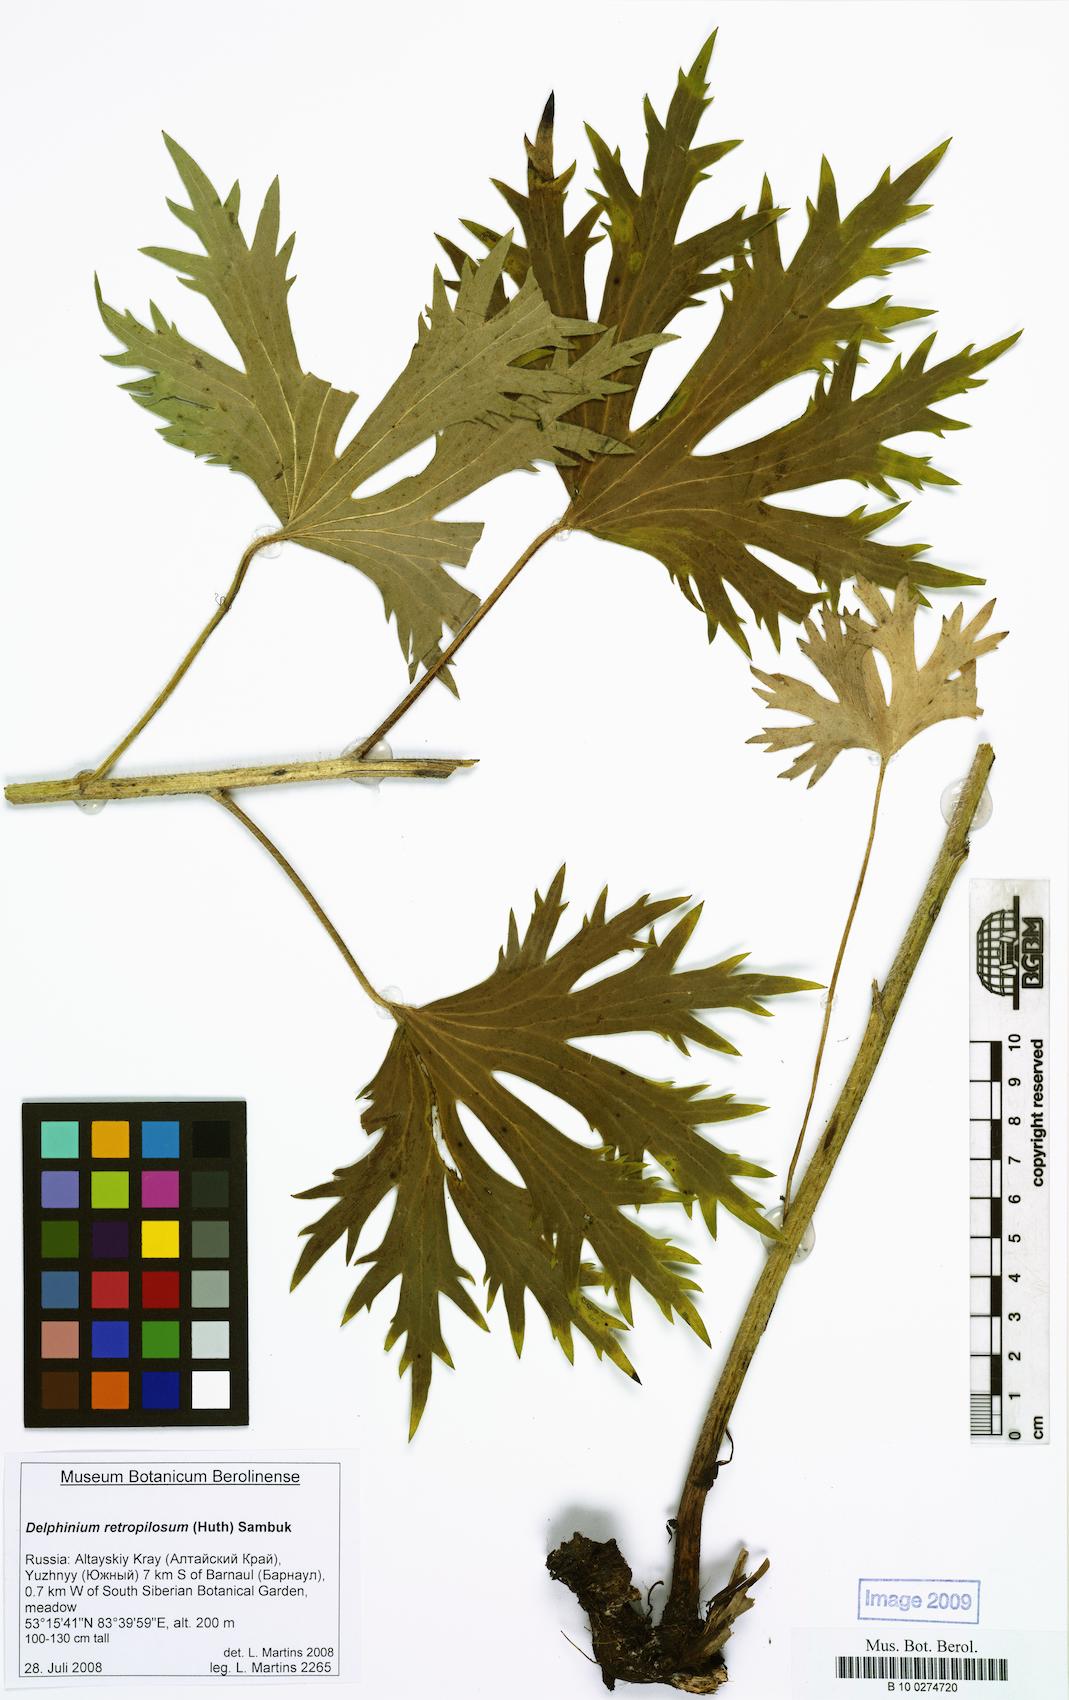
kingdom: Plantae
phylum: Tracheophyta
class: Magnoliopsida
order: Ranunculales
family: Ranunculaceae
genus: Delphinium
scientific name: Delphinium retropilosum
